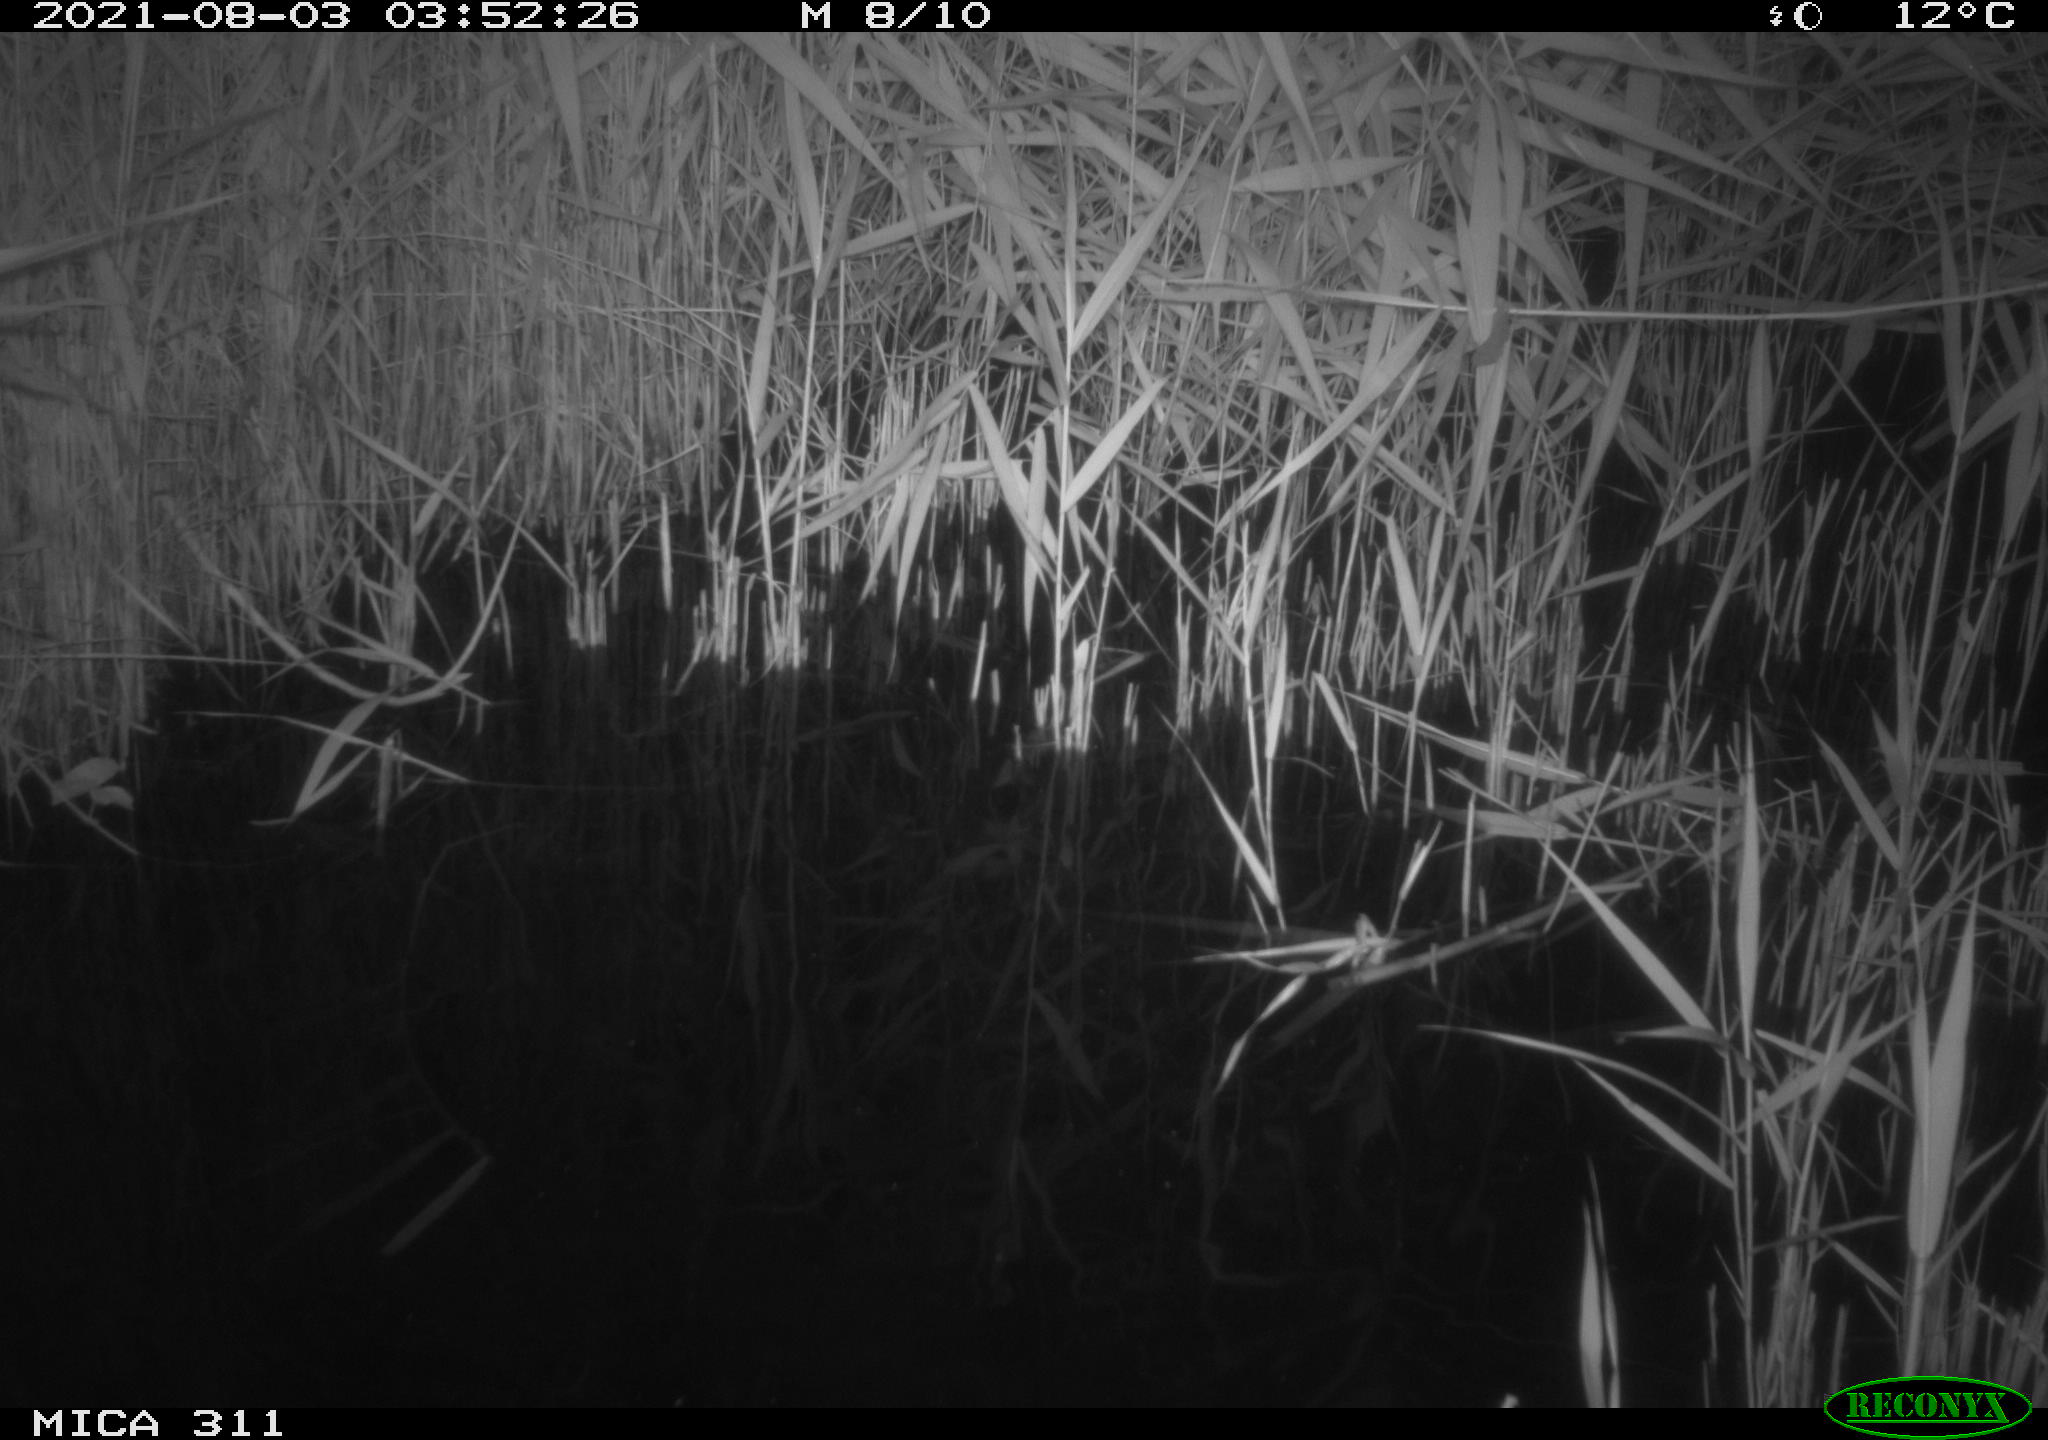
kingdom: Animalia
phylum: Chordata
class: Mammalia
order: Rodentia
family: Muridae
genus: Rattus
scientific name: Rattus norvegicus
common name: Brown rat
